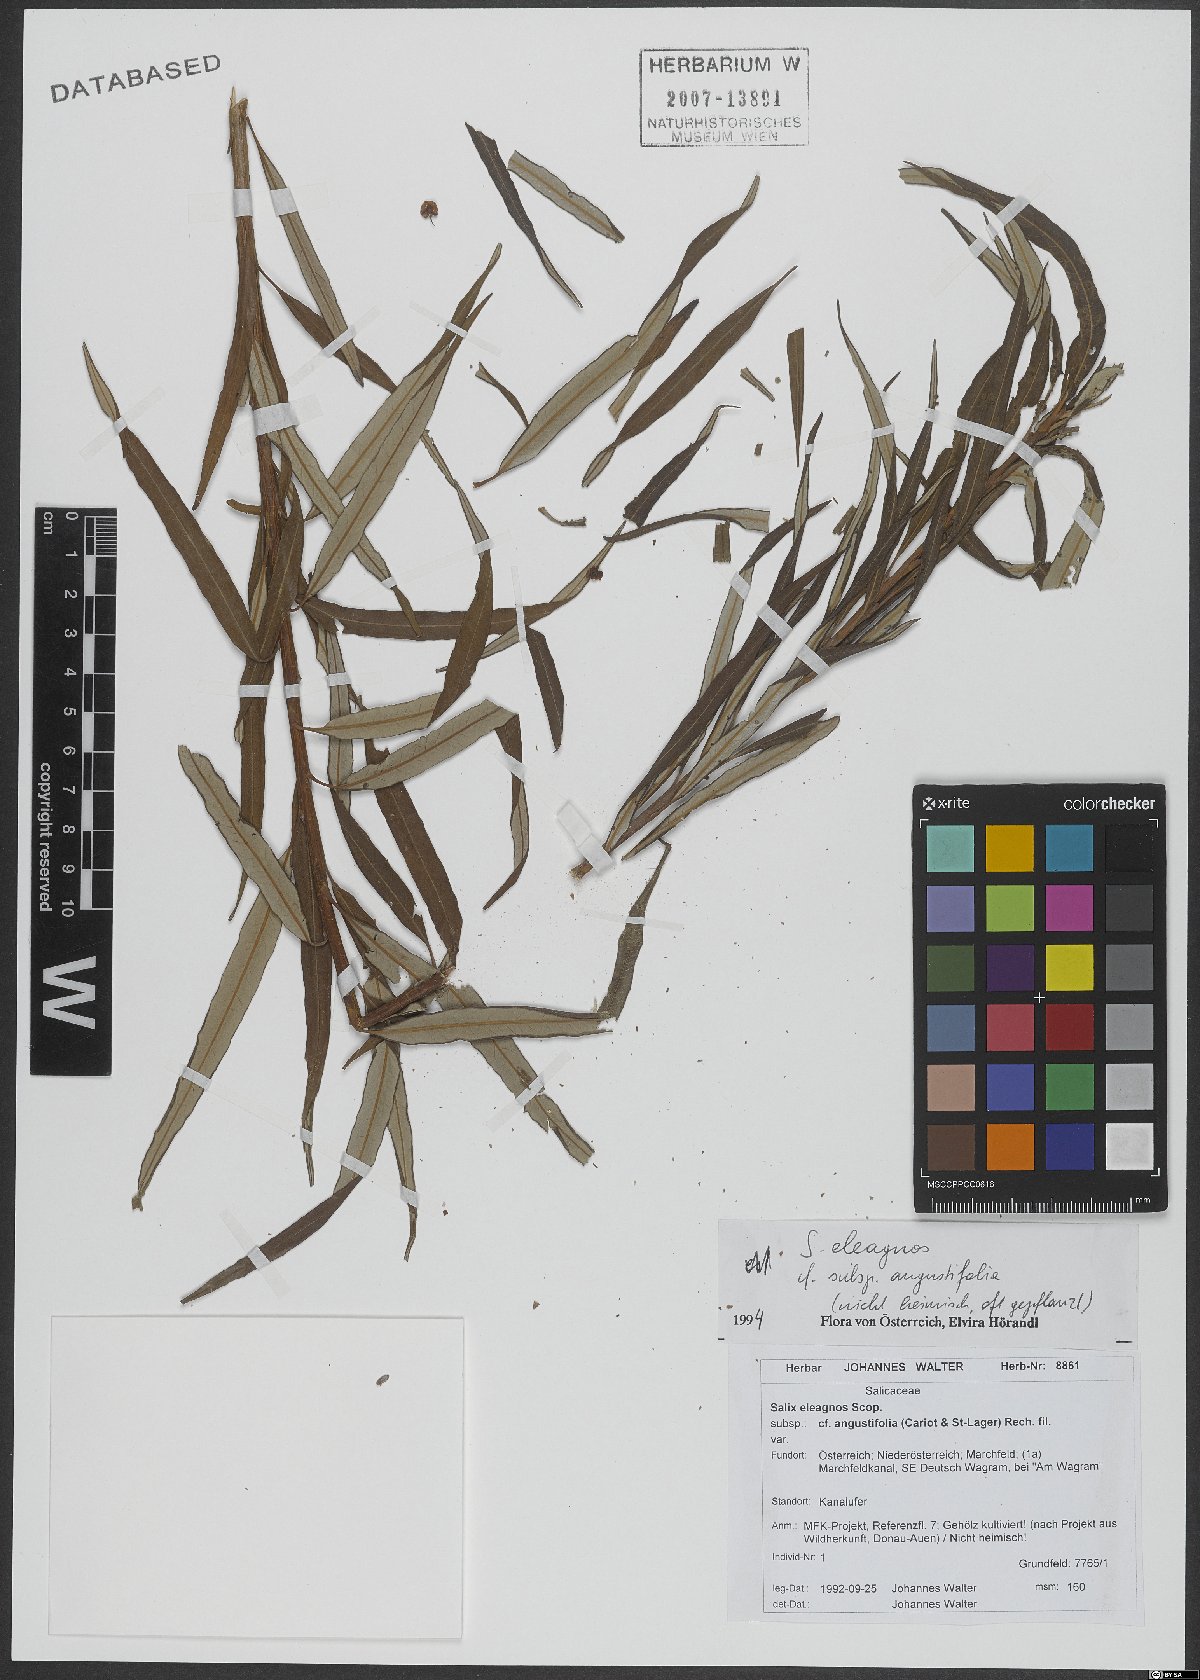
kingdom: Plantae
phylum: Tracheophyta
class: Magnoliopsida
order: Malpighiales
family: Salicaceae
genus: Salix
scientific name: Salix eleagnos
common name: Elaeagnus willow
